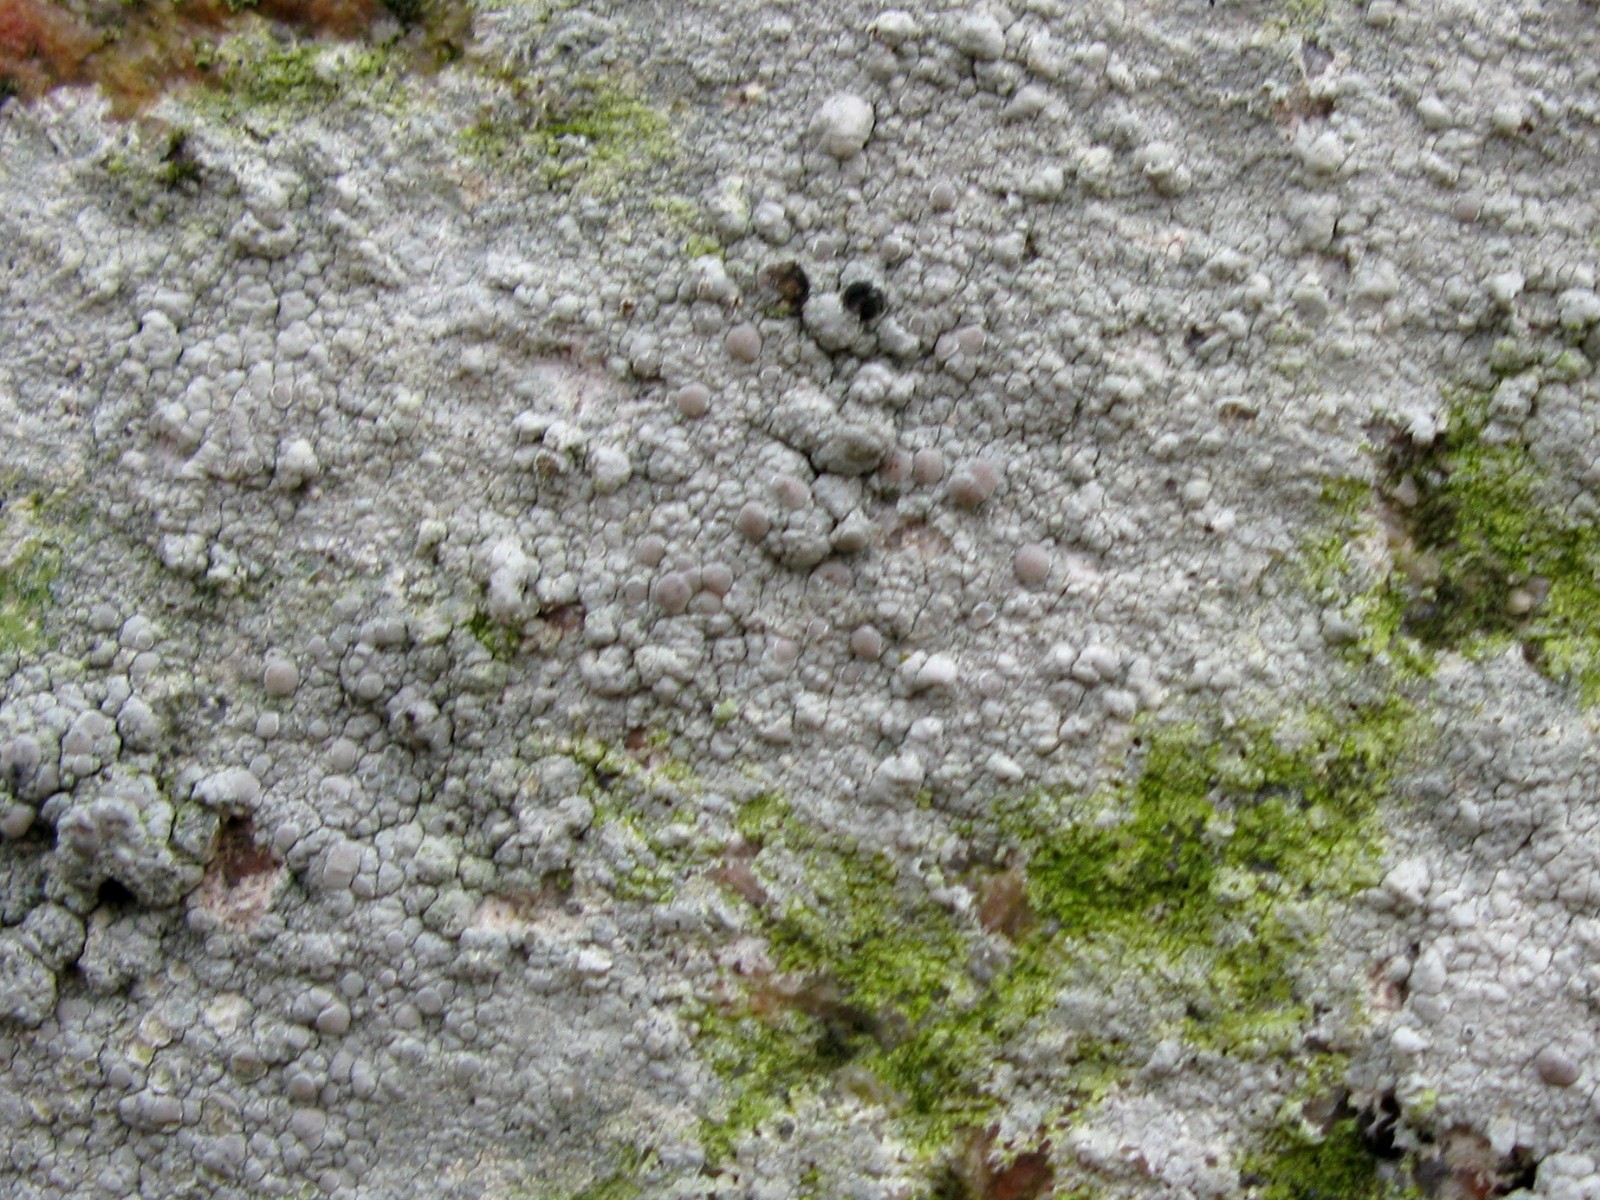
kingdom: Fungi
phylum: Ascomycota
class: Lecanoromycetes
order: Lecanorales
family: Lecanoraceae
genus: Glaucomaria
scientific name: Glaucomaria rupicola
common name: stengærde-kantskivelav
